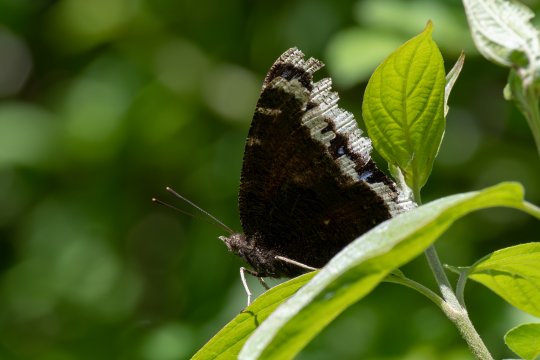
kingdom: Animalia
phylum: Arthropoda
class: Insecta
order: Lepidoptera
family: Nymphalidae
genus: Nymphalis
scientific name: Nymphalis antiopa
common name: Mourning Cloak
